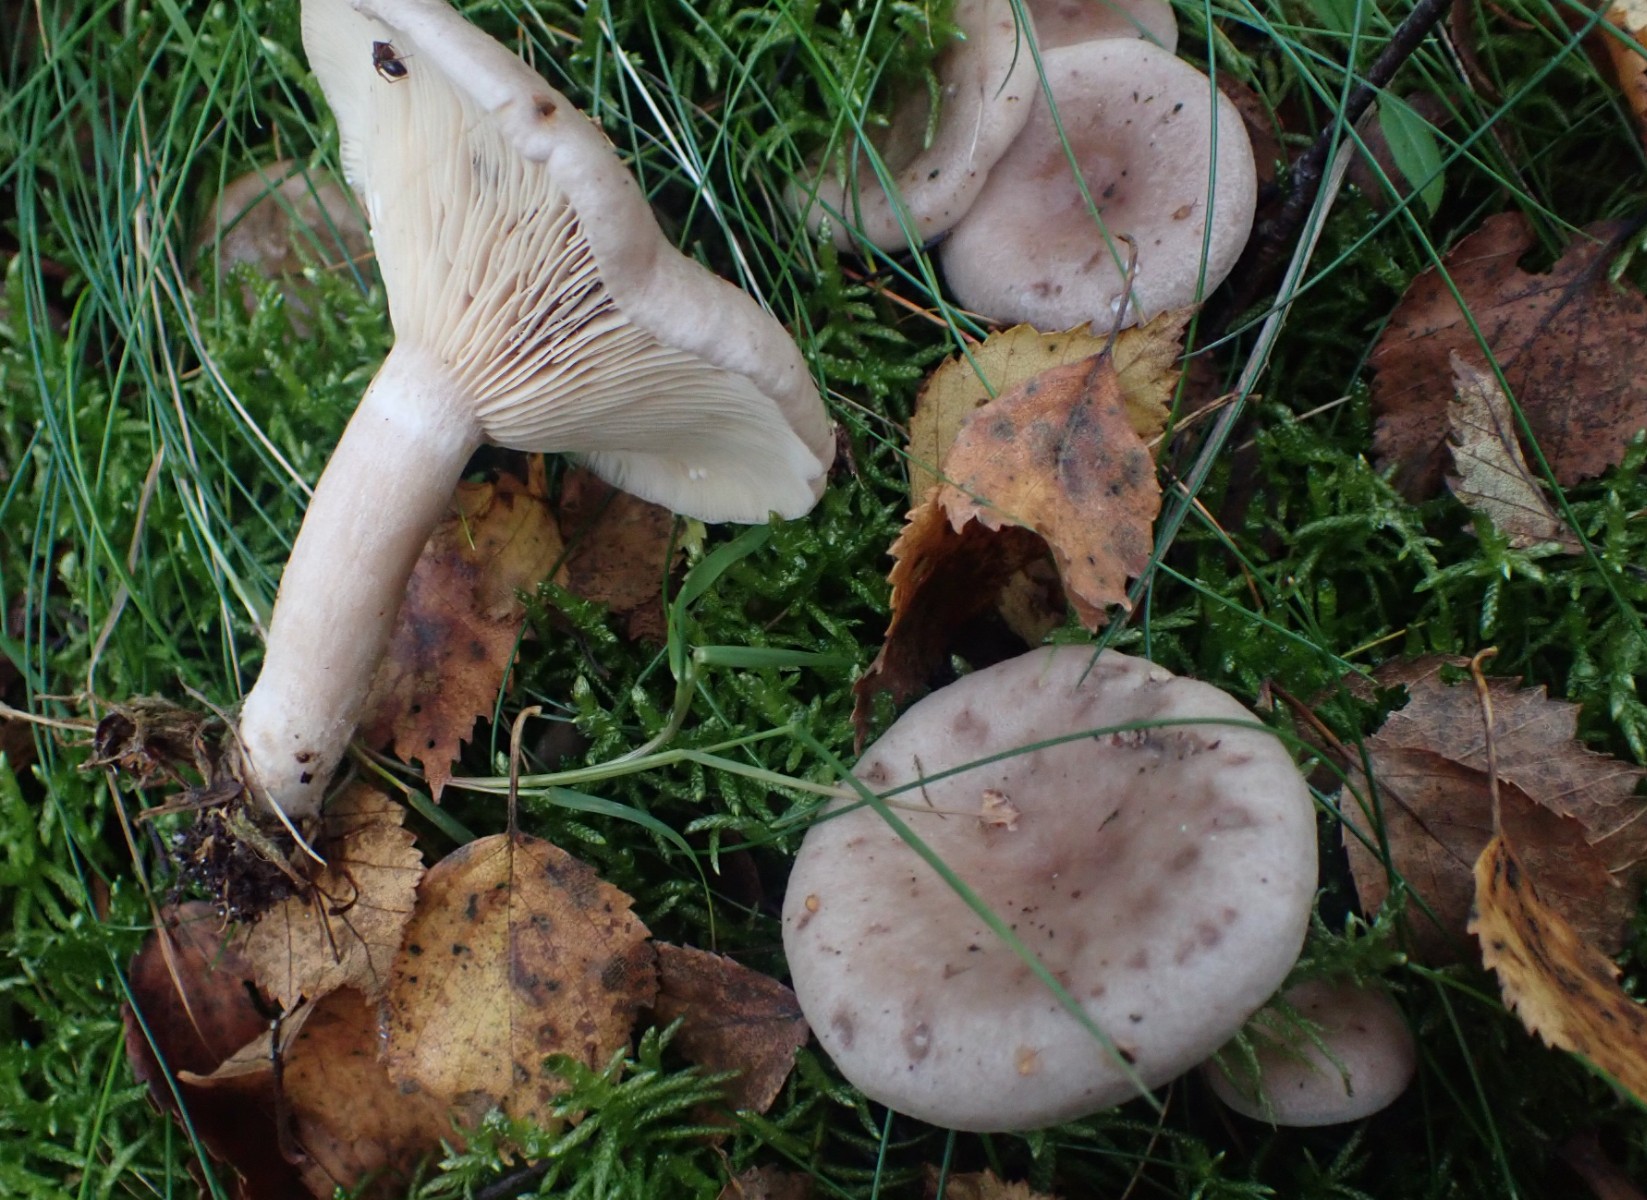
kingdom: Fungi
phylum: Basidiomycota
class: Agaricomycetes
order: Russulales
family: Russulaceae
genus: Lactarius
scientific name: Lactarius vietus
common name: violetgrå mælkehat
